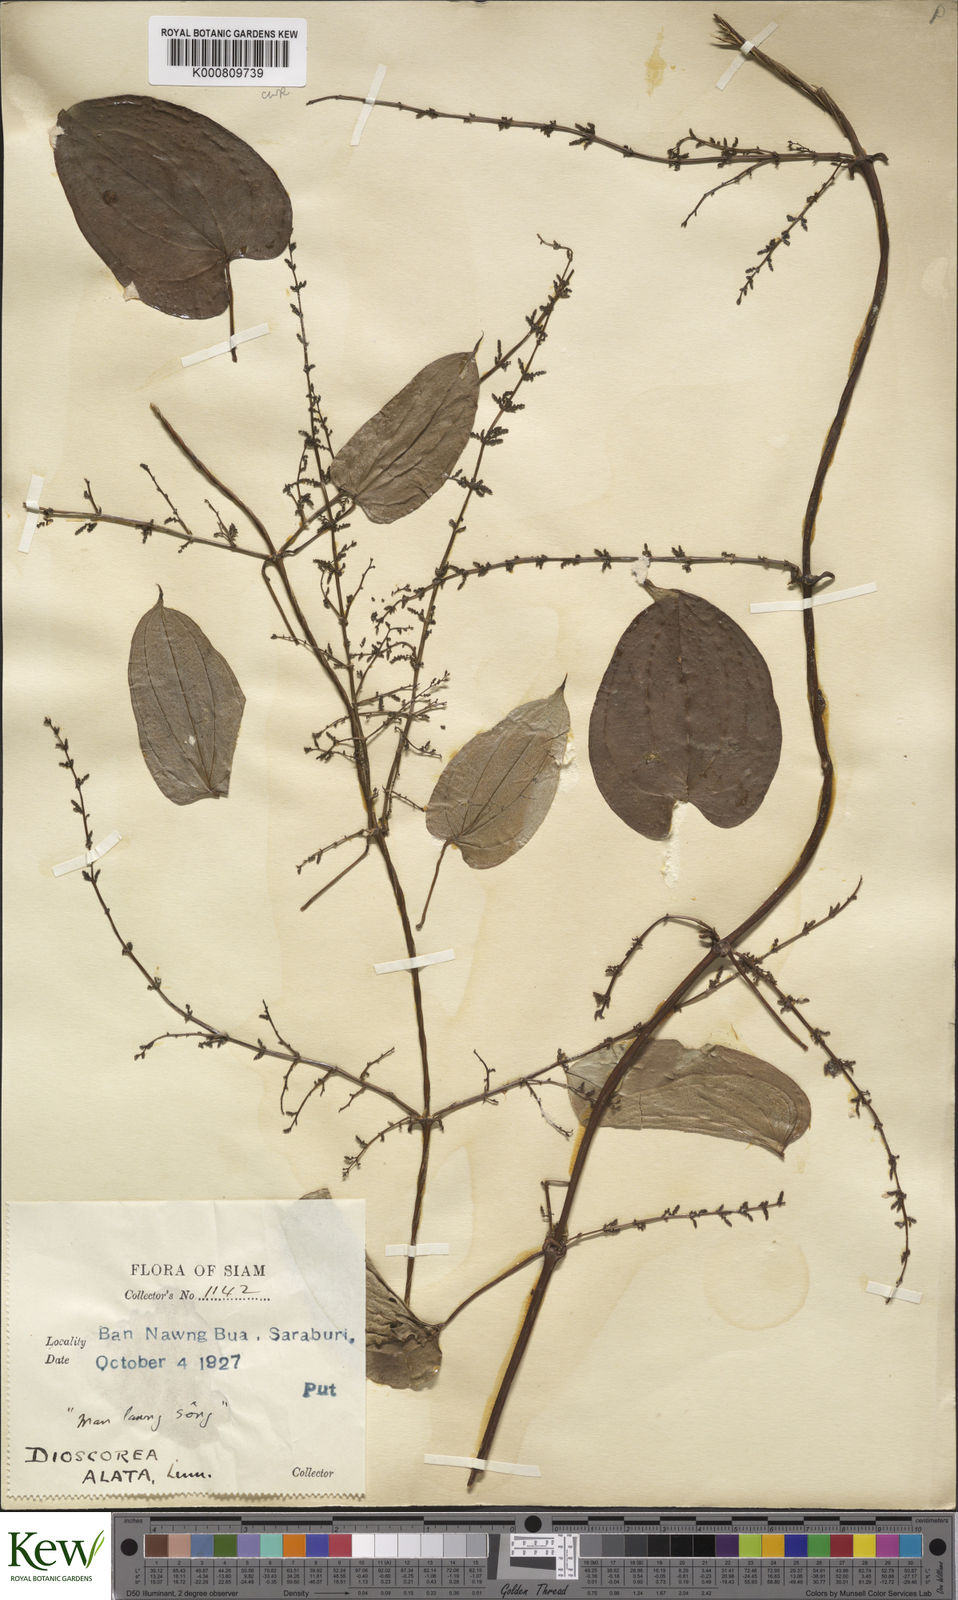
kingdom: Plantae
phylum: Tracheophyta
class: Liliopsida
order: Dioscoreales
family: Dioscoreaceae
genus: Dioscorea
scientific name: Dioscorea alata
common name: Water yam
